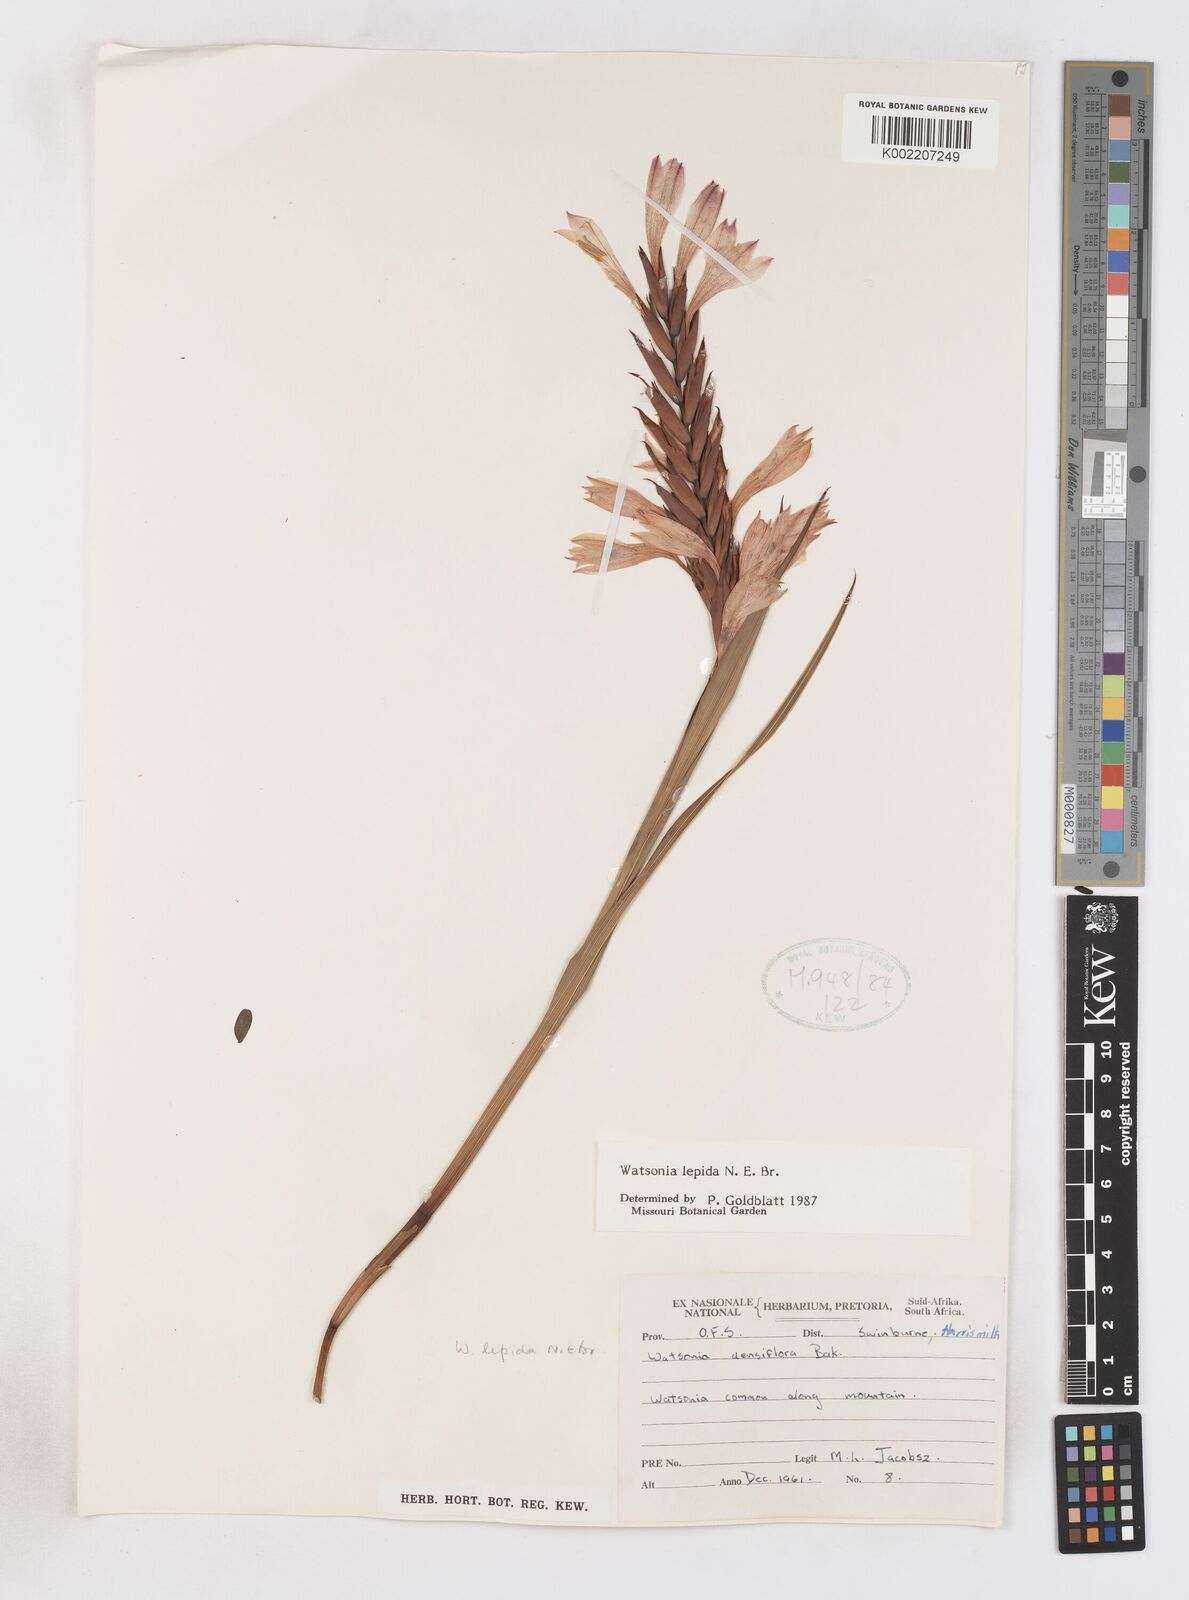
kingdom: Plantae
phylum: Tracheophyta
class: Liliopsida
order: Asparagales
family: Iridaceae
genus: Watsonia
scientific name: Watsonia lepida
